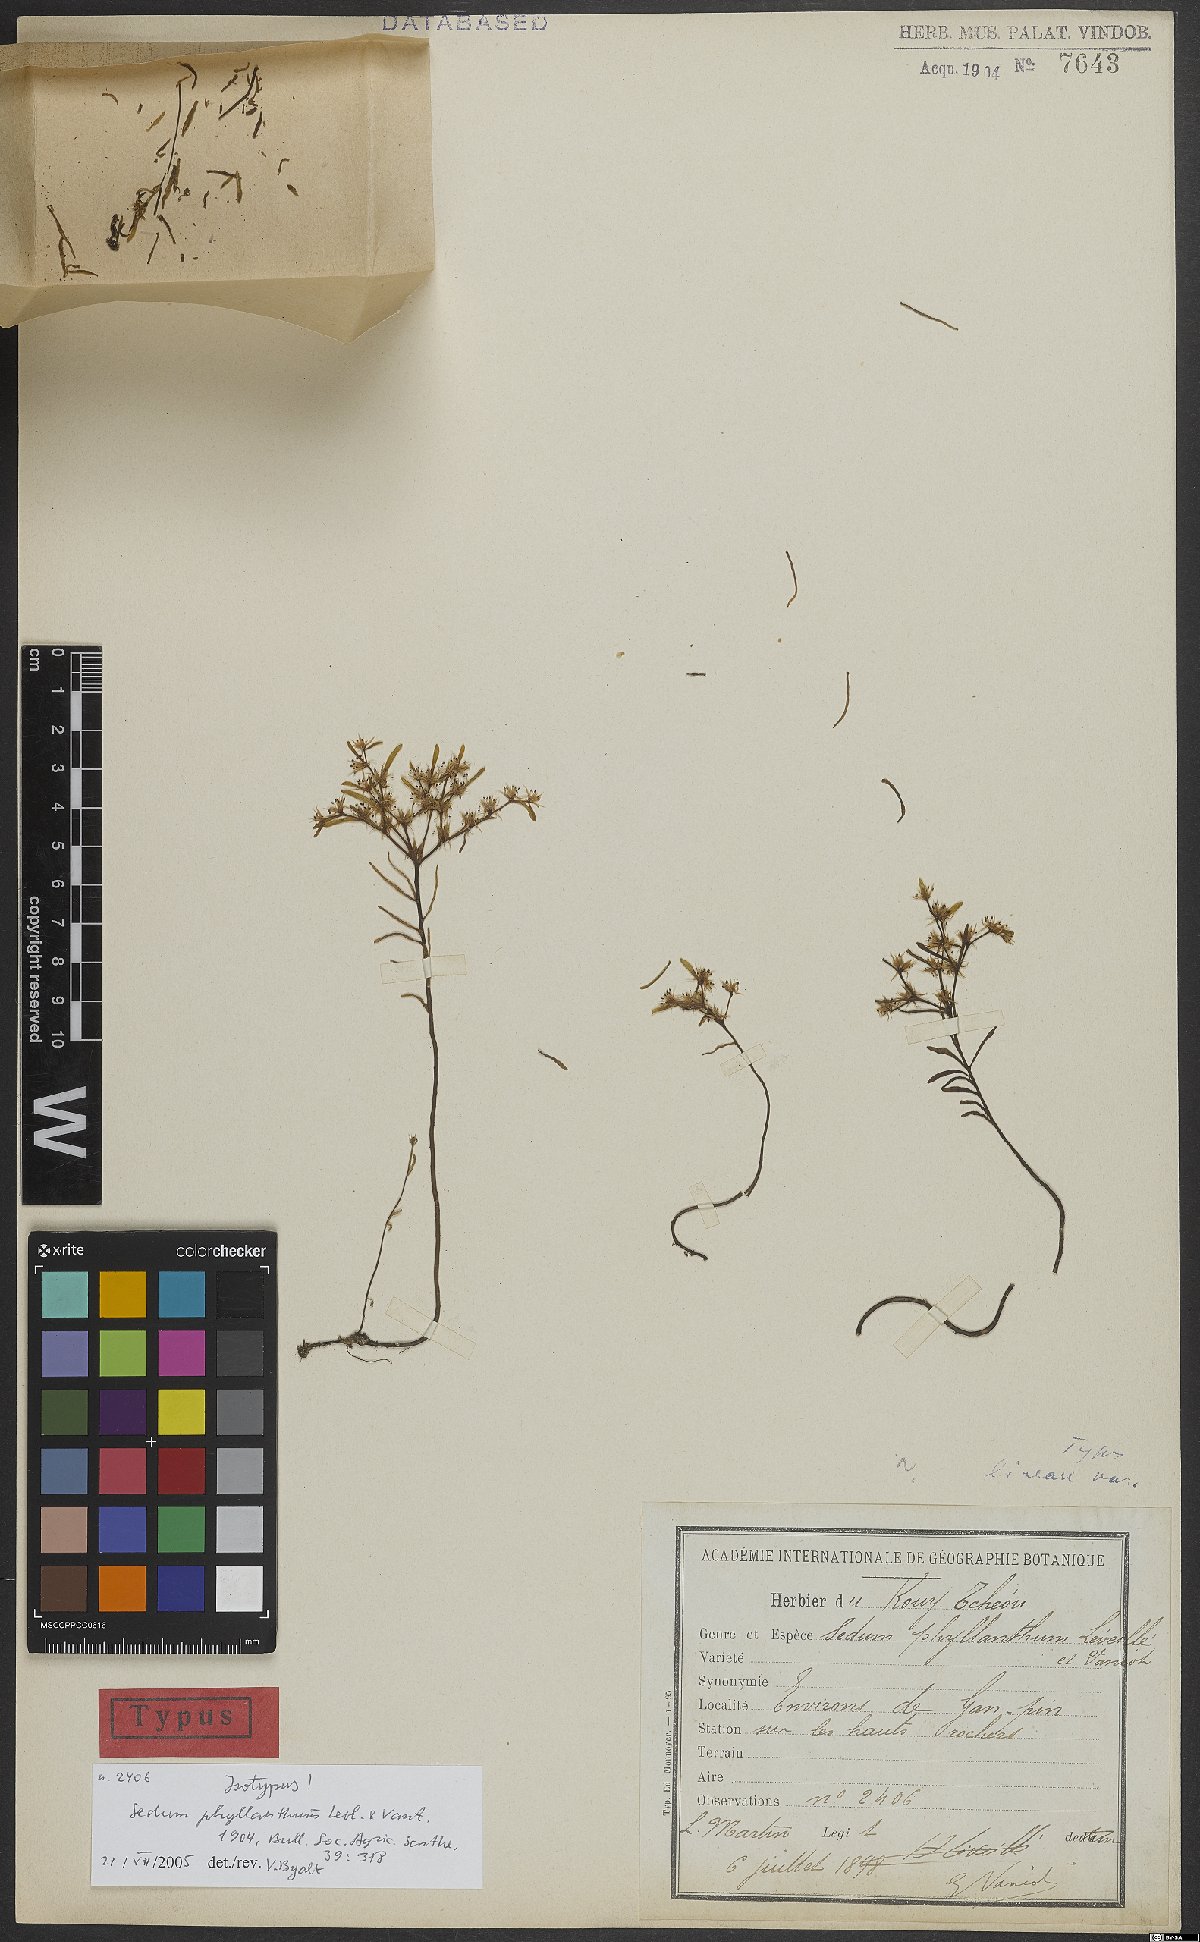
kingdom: Plantae
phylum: Tracheophyta
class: Magnoliopsida
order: Saxifragales
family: Crassulaceae
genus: Sedum
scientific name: Sedum phyllanthum
